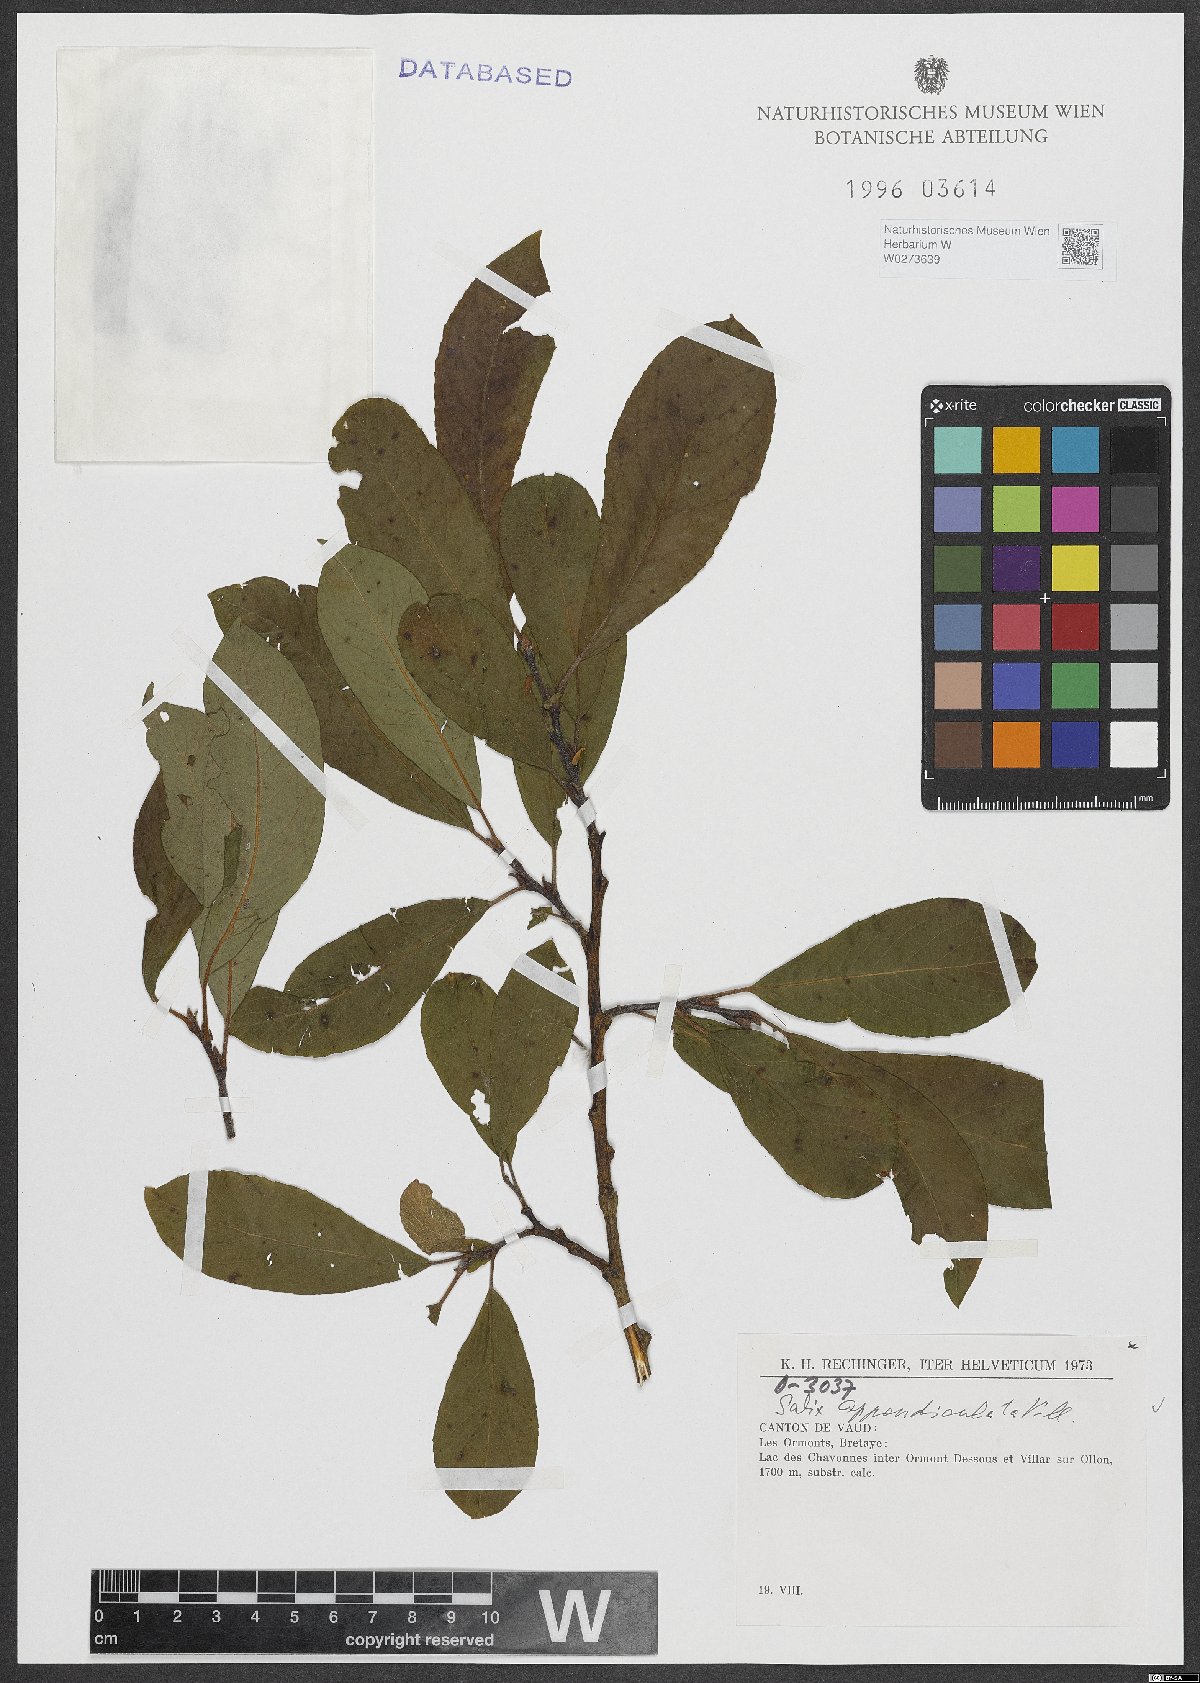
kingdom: Plantae
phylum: Tracheophyta
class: Magnoliopsida
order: Malpighiales
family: Salicaceae
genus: Salix
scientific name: Salix appendiculata
